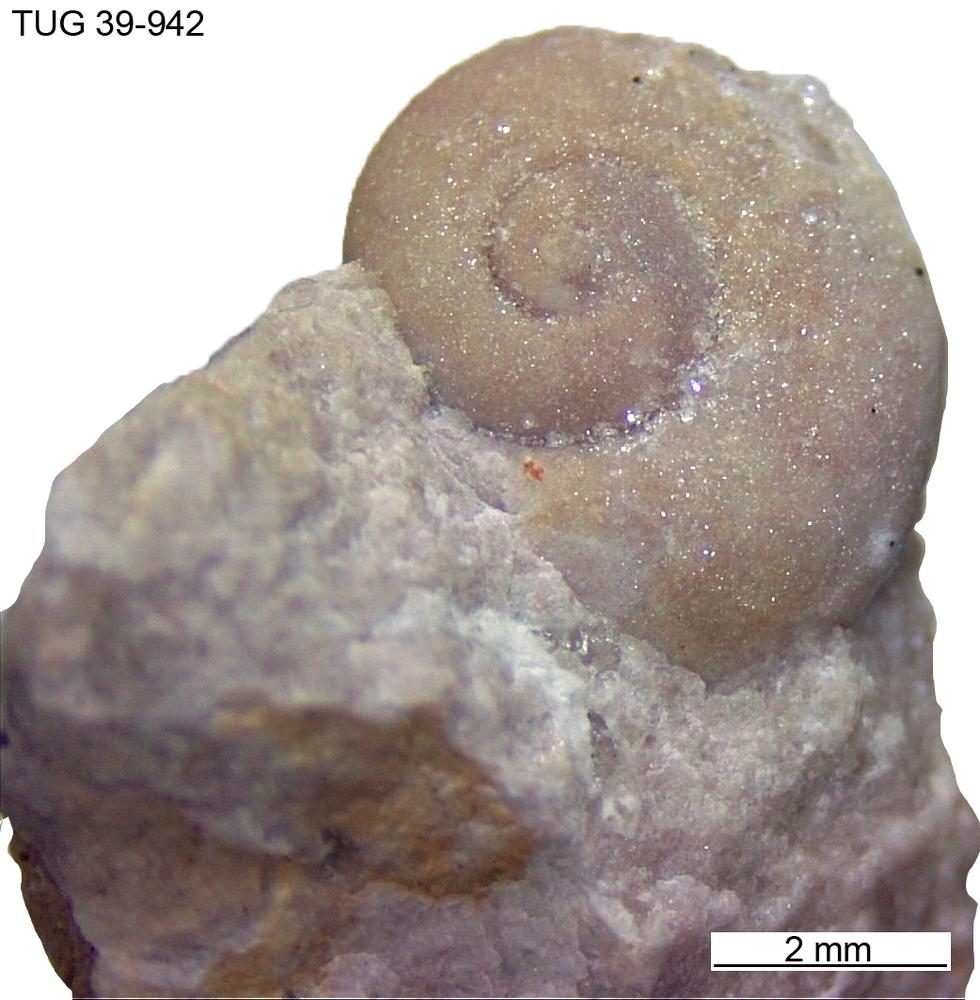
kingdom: Animalia
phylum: Mollusca
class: Gastropoda
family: Euomphalidae
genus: Straparollus
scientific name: Straparollus
